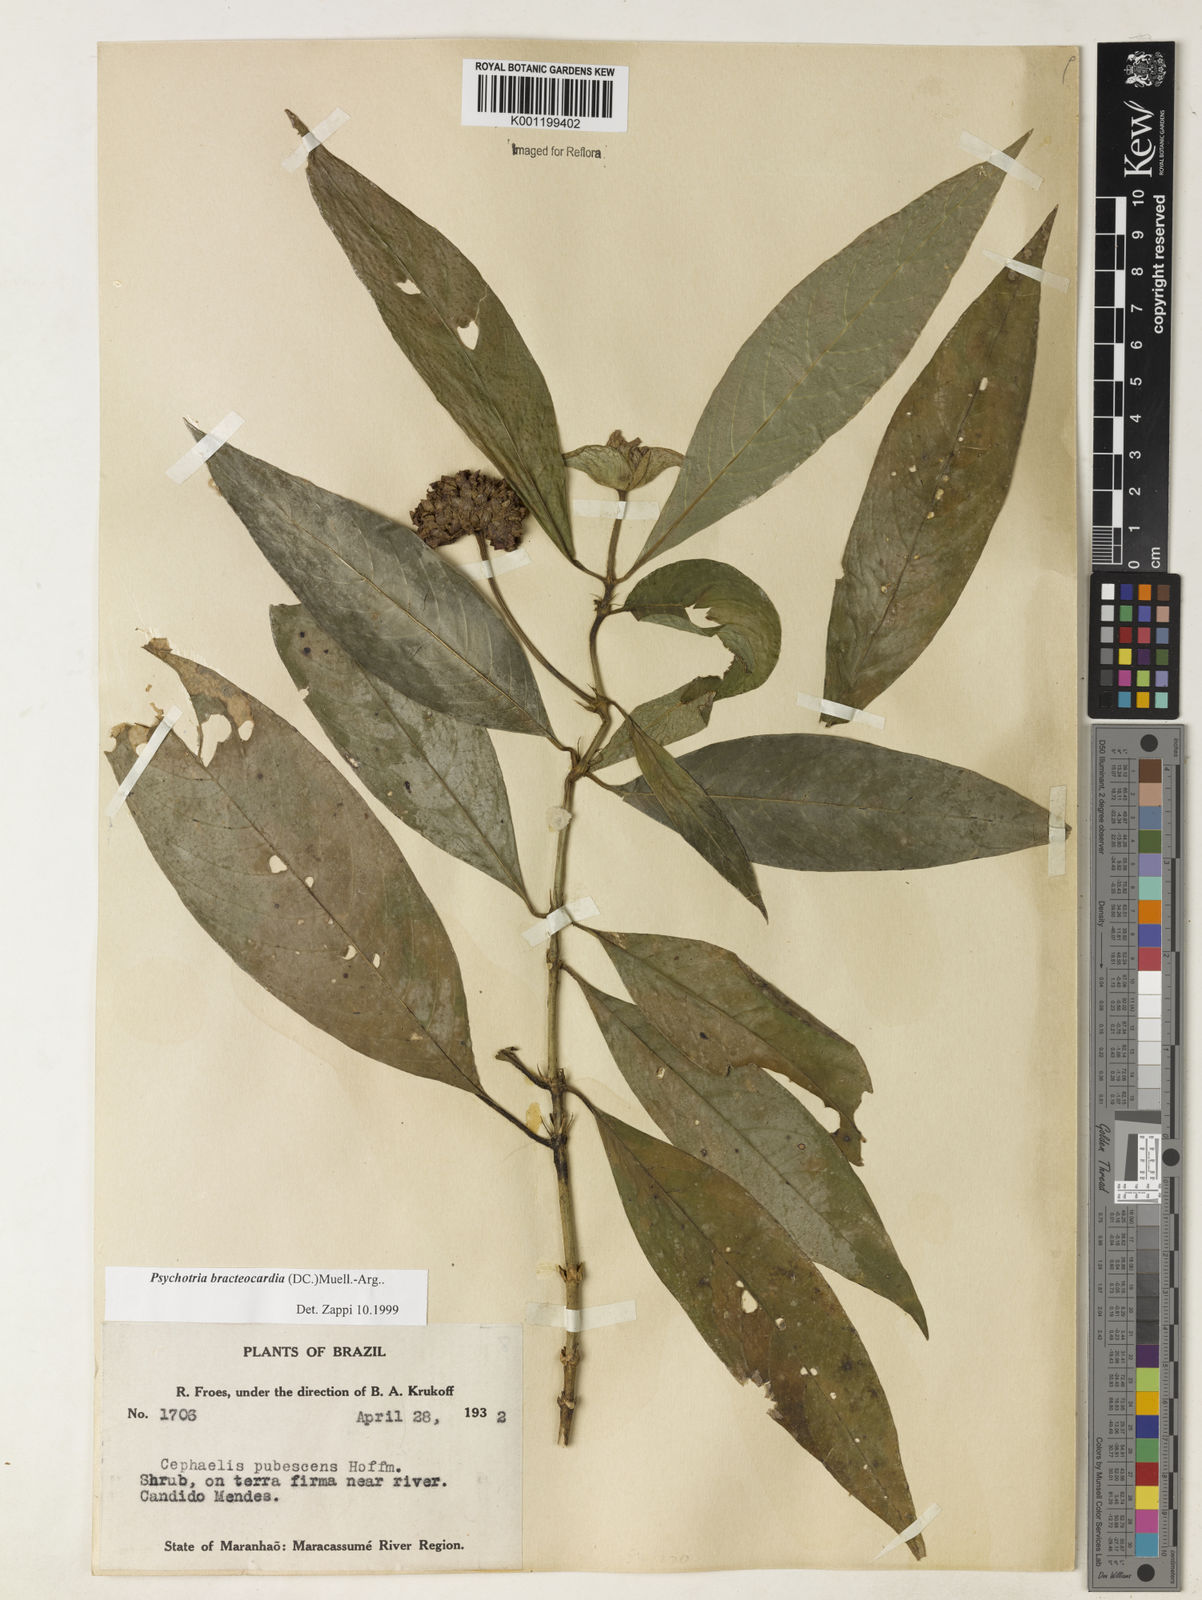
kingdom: Plantae
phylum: Tracheophyta
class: Magnoliopsida
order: Gentianales
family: Rubiaceae
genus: Psychotria
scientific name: Psychotria
